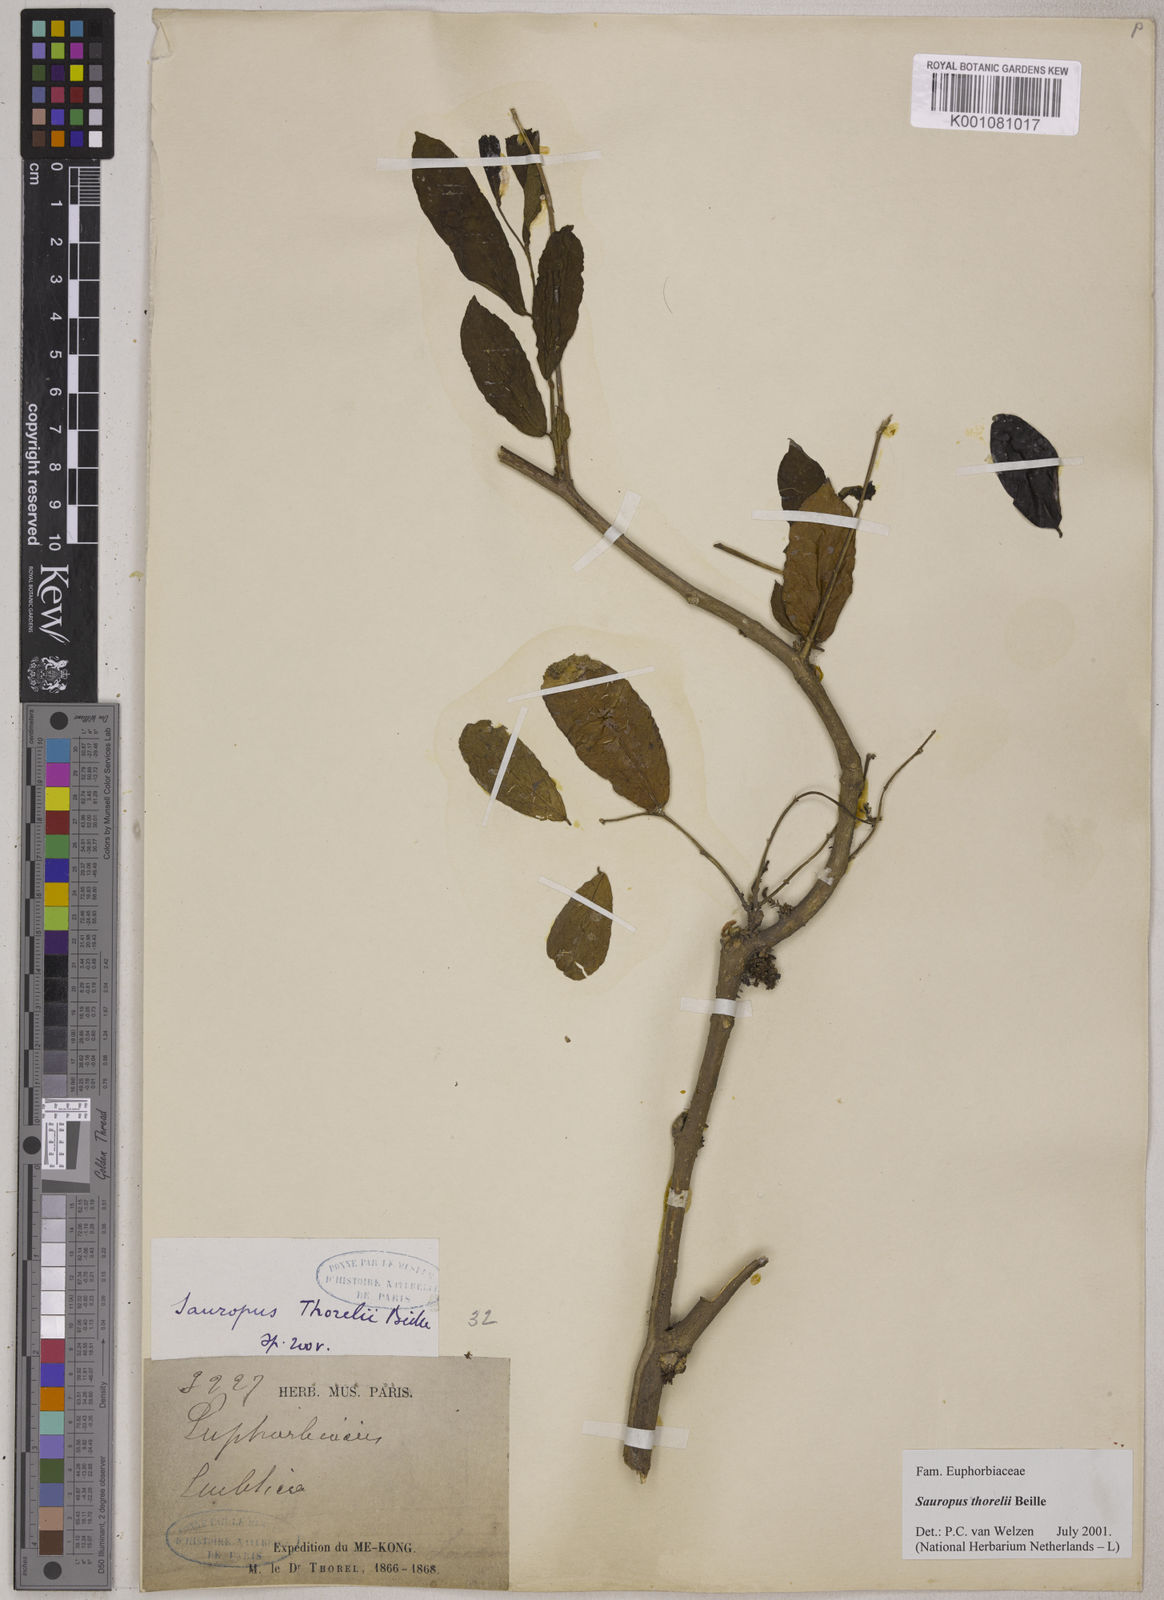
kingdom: Plantae
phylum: Tracheophyta
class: Magnoliopsida
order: Malpighiales
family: Phyllanthaceae
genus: Breynia
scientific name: Breynia thorelii
